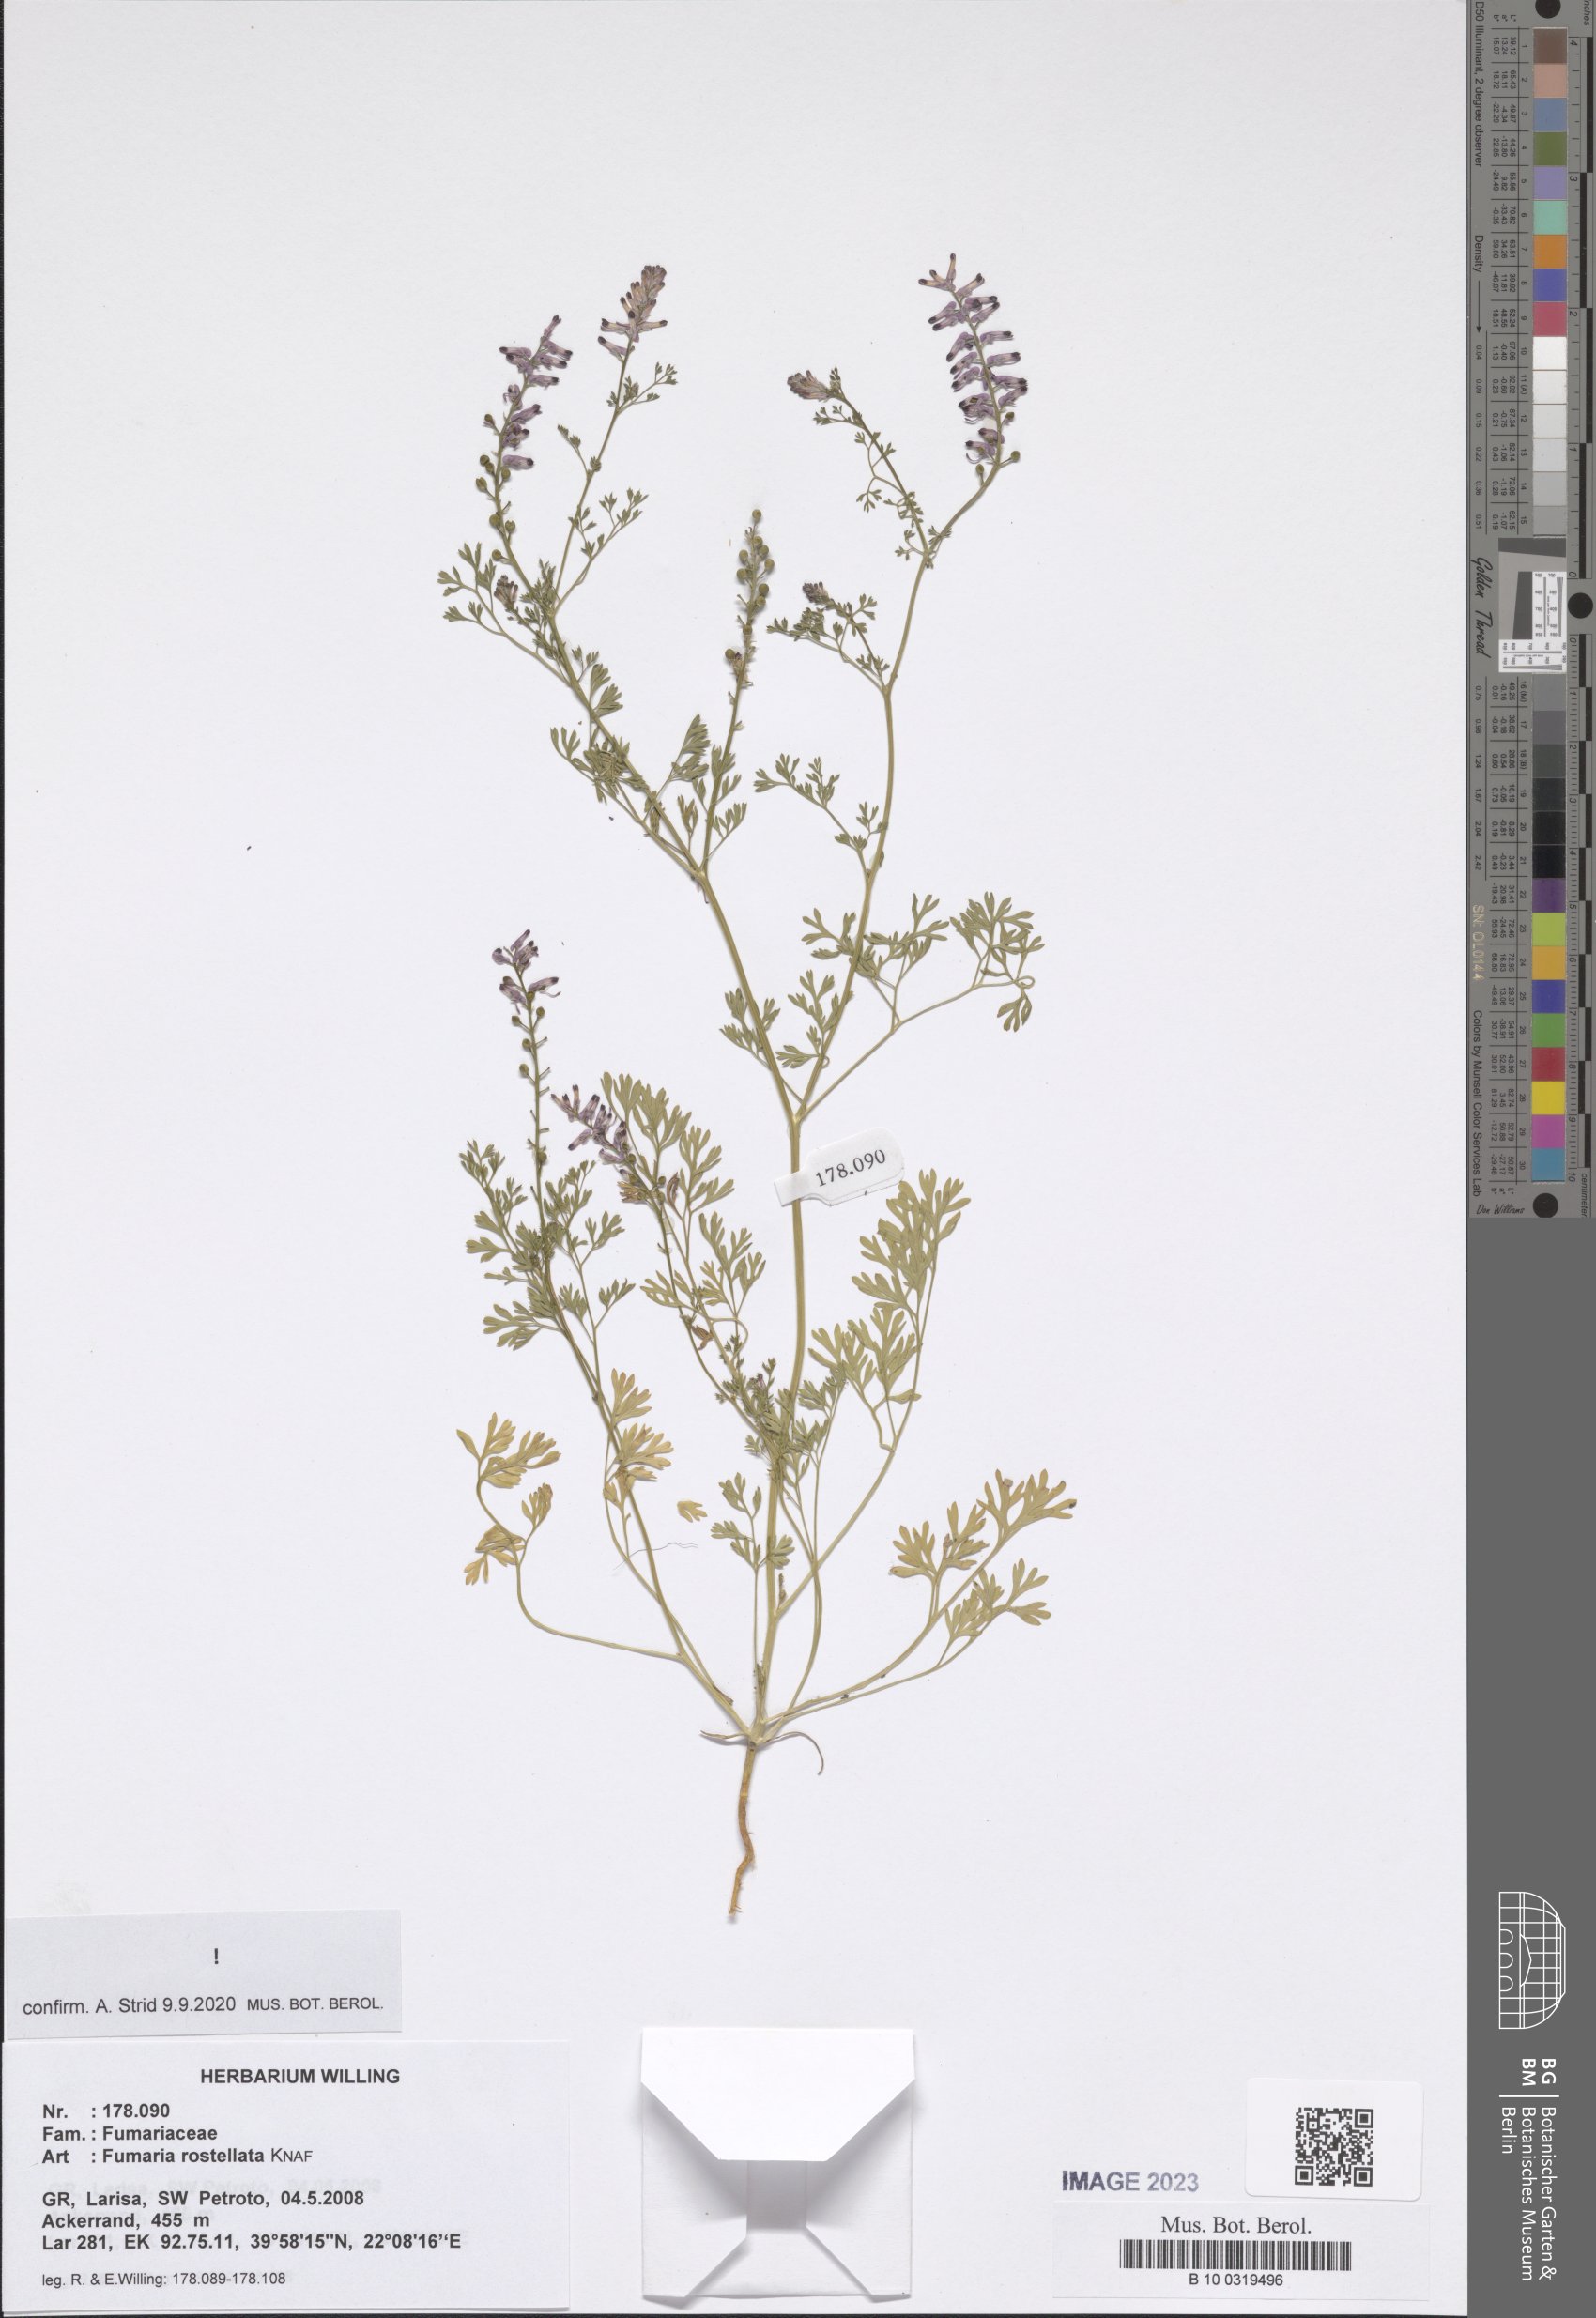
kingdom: Plantae
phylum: Tracheophyta
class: Magnoliopsida
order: Ranunculales
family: Papaveraceae
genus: Fumaria
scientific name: Fumaria rostellata
